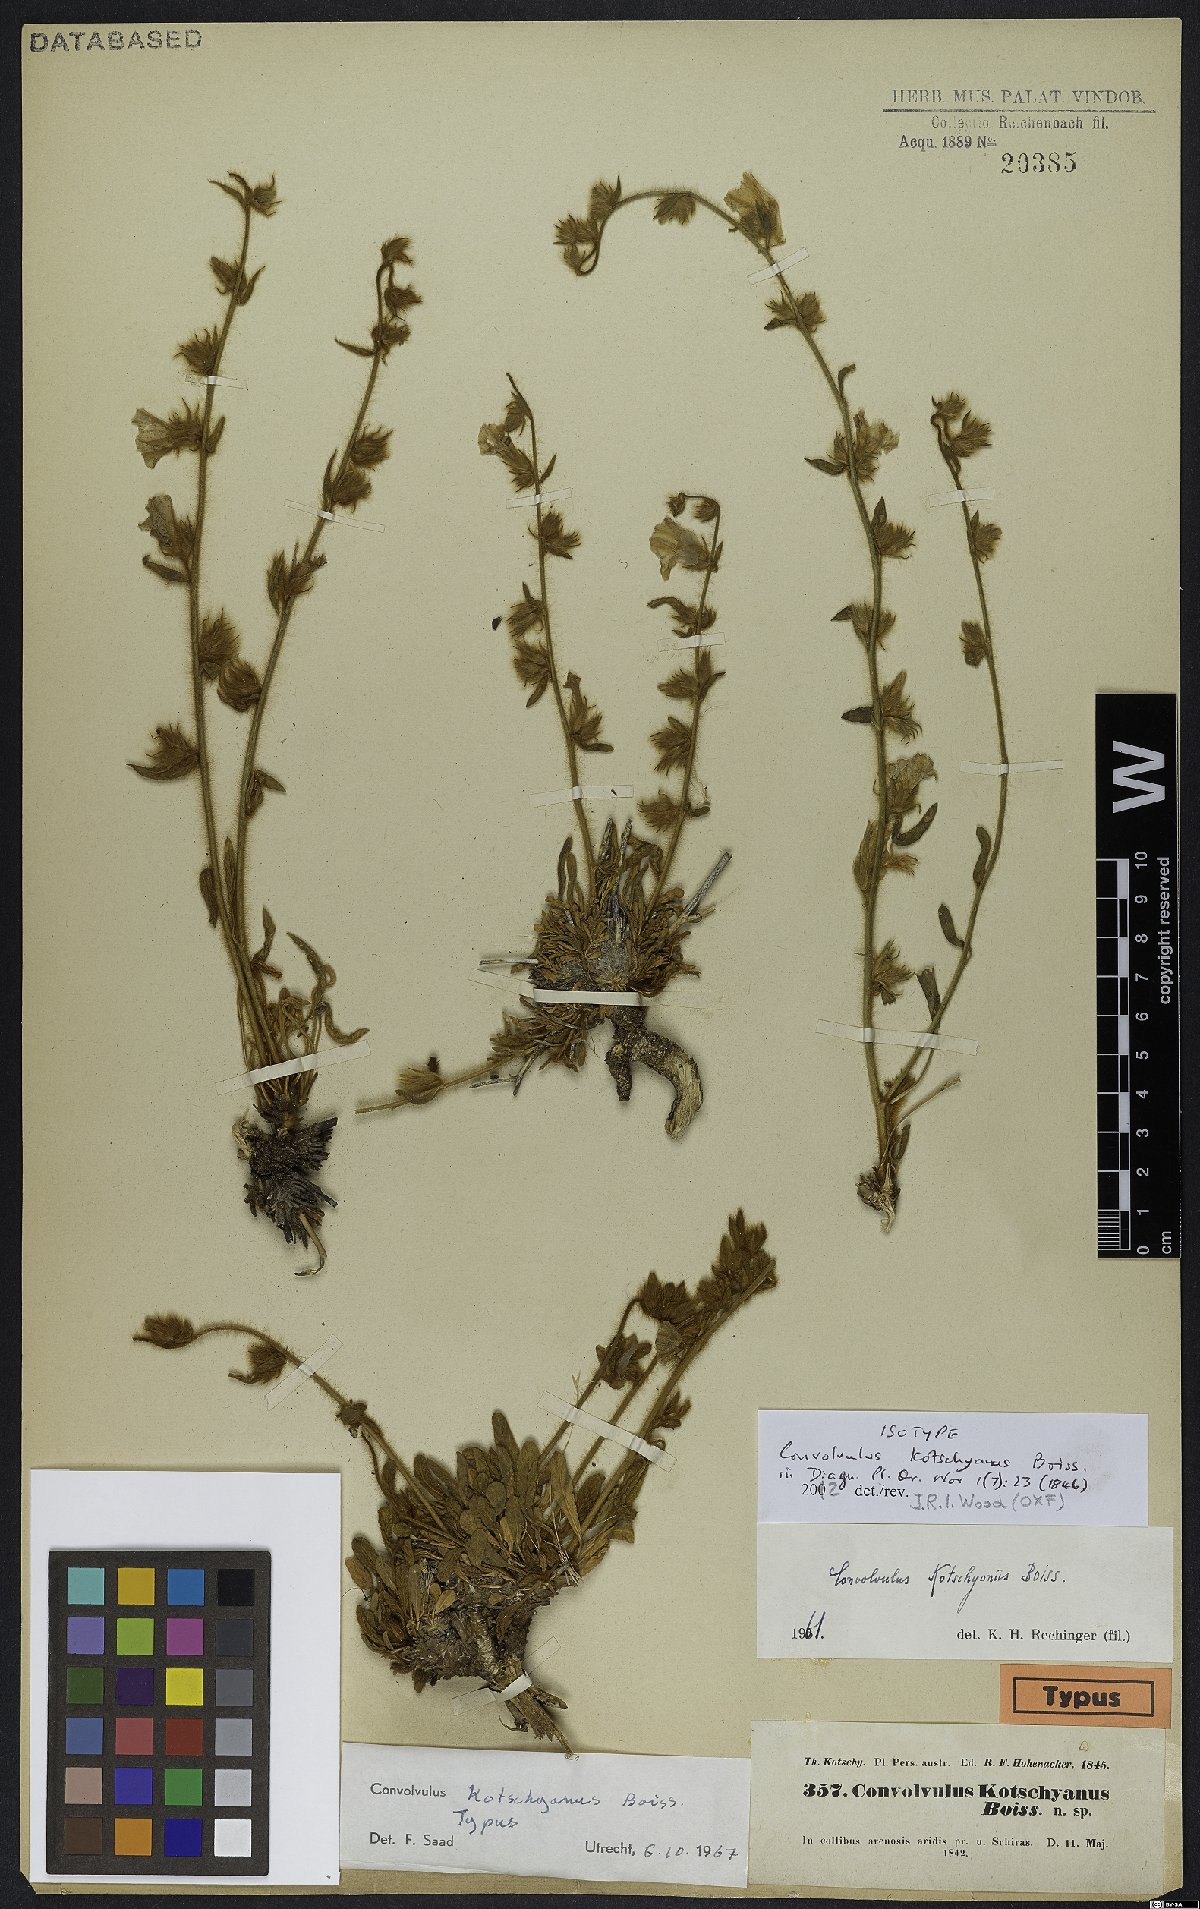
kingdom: Plantae
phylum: Tracheophyta
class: Magnoliopsida
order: Solanales
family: Convolvulaceae
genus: Convolvulus
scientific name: Convolvulus kotschyanus
